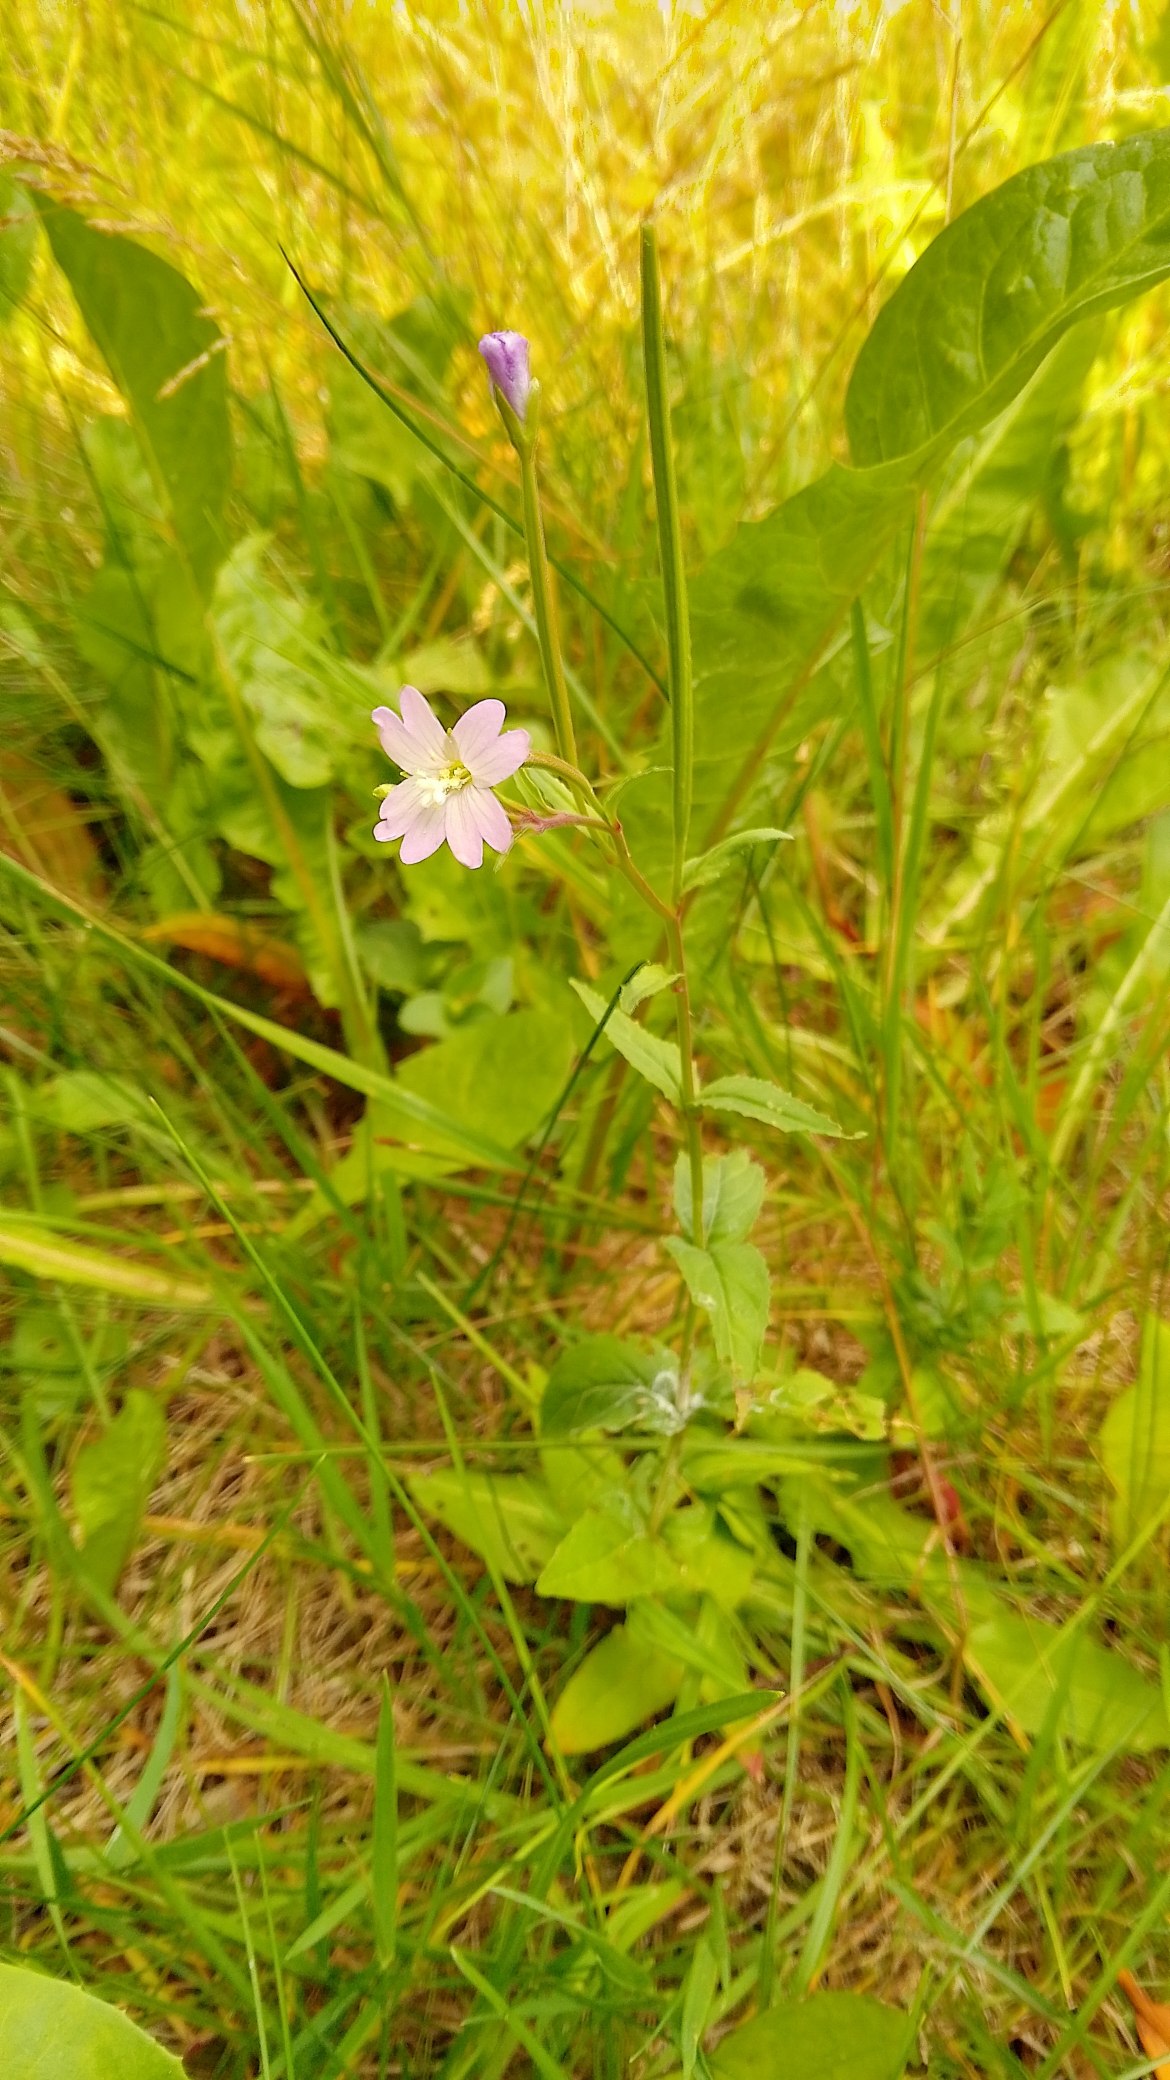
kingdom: Plantae
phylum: Tracheophyta
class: Magnoliopsida
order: Myrtales
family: Onagraceae
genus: Epilobium
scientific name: Epilobium montanum
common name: Glat dueurt
